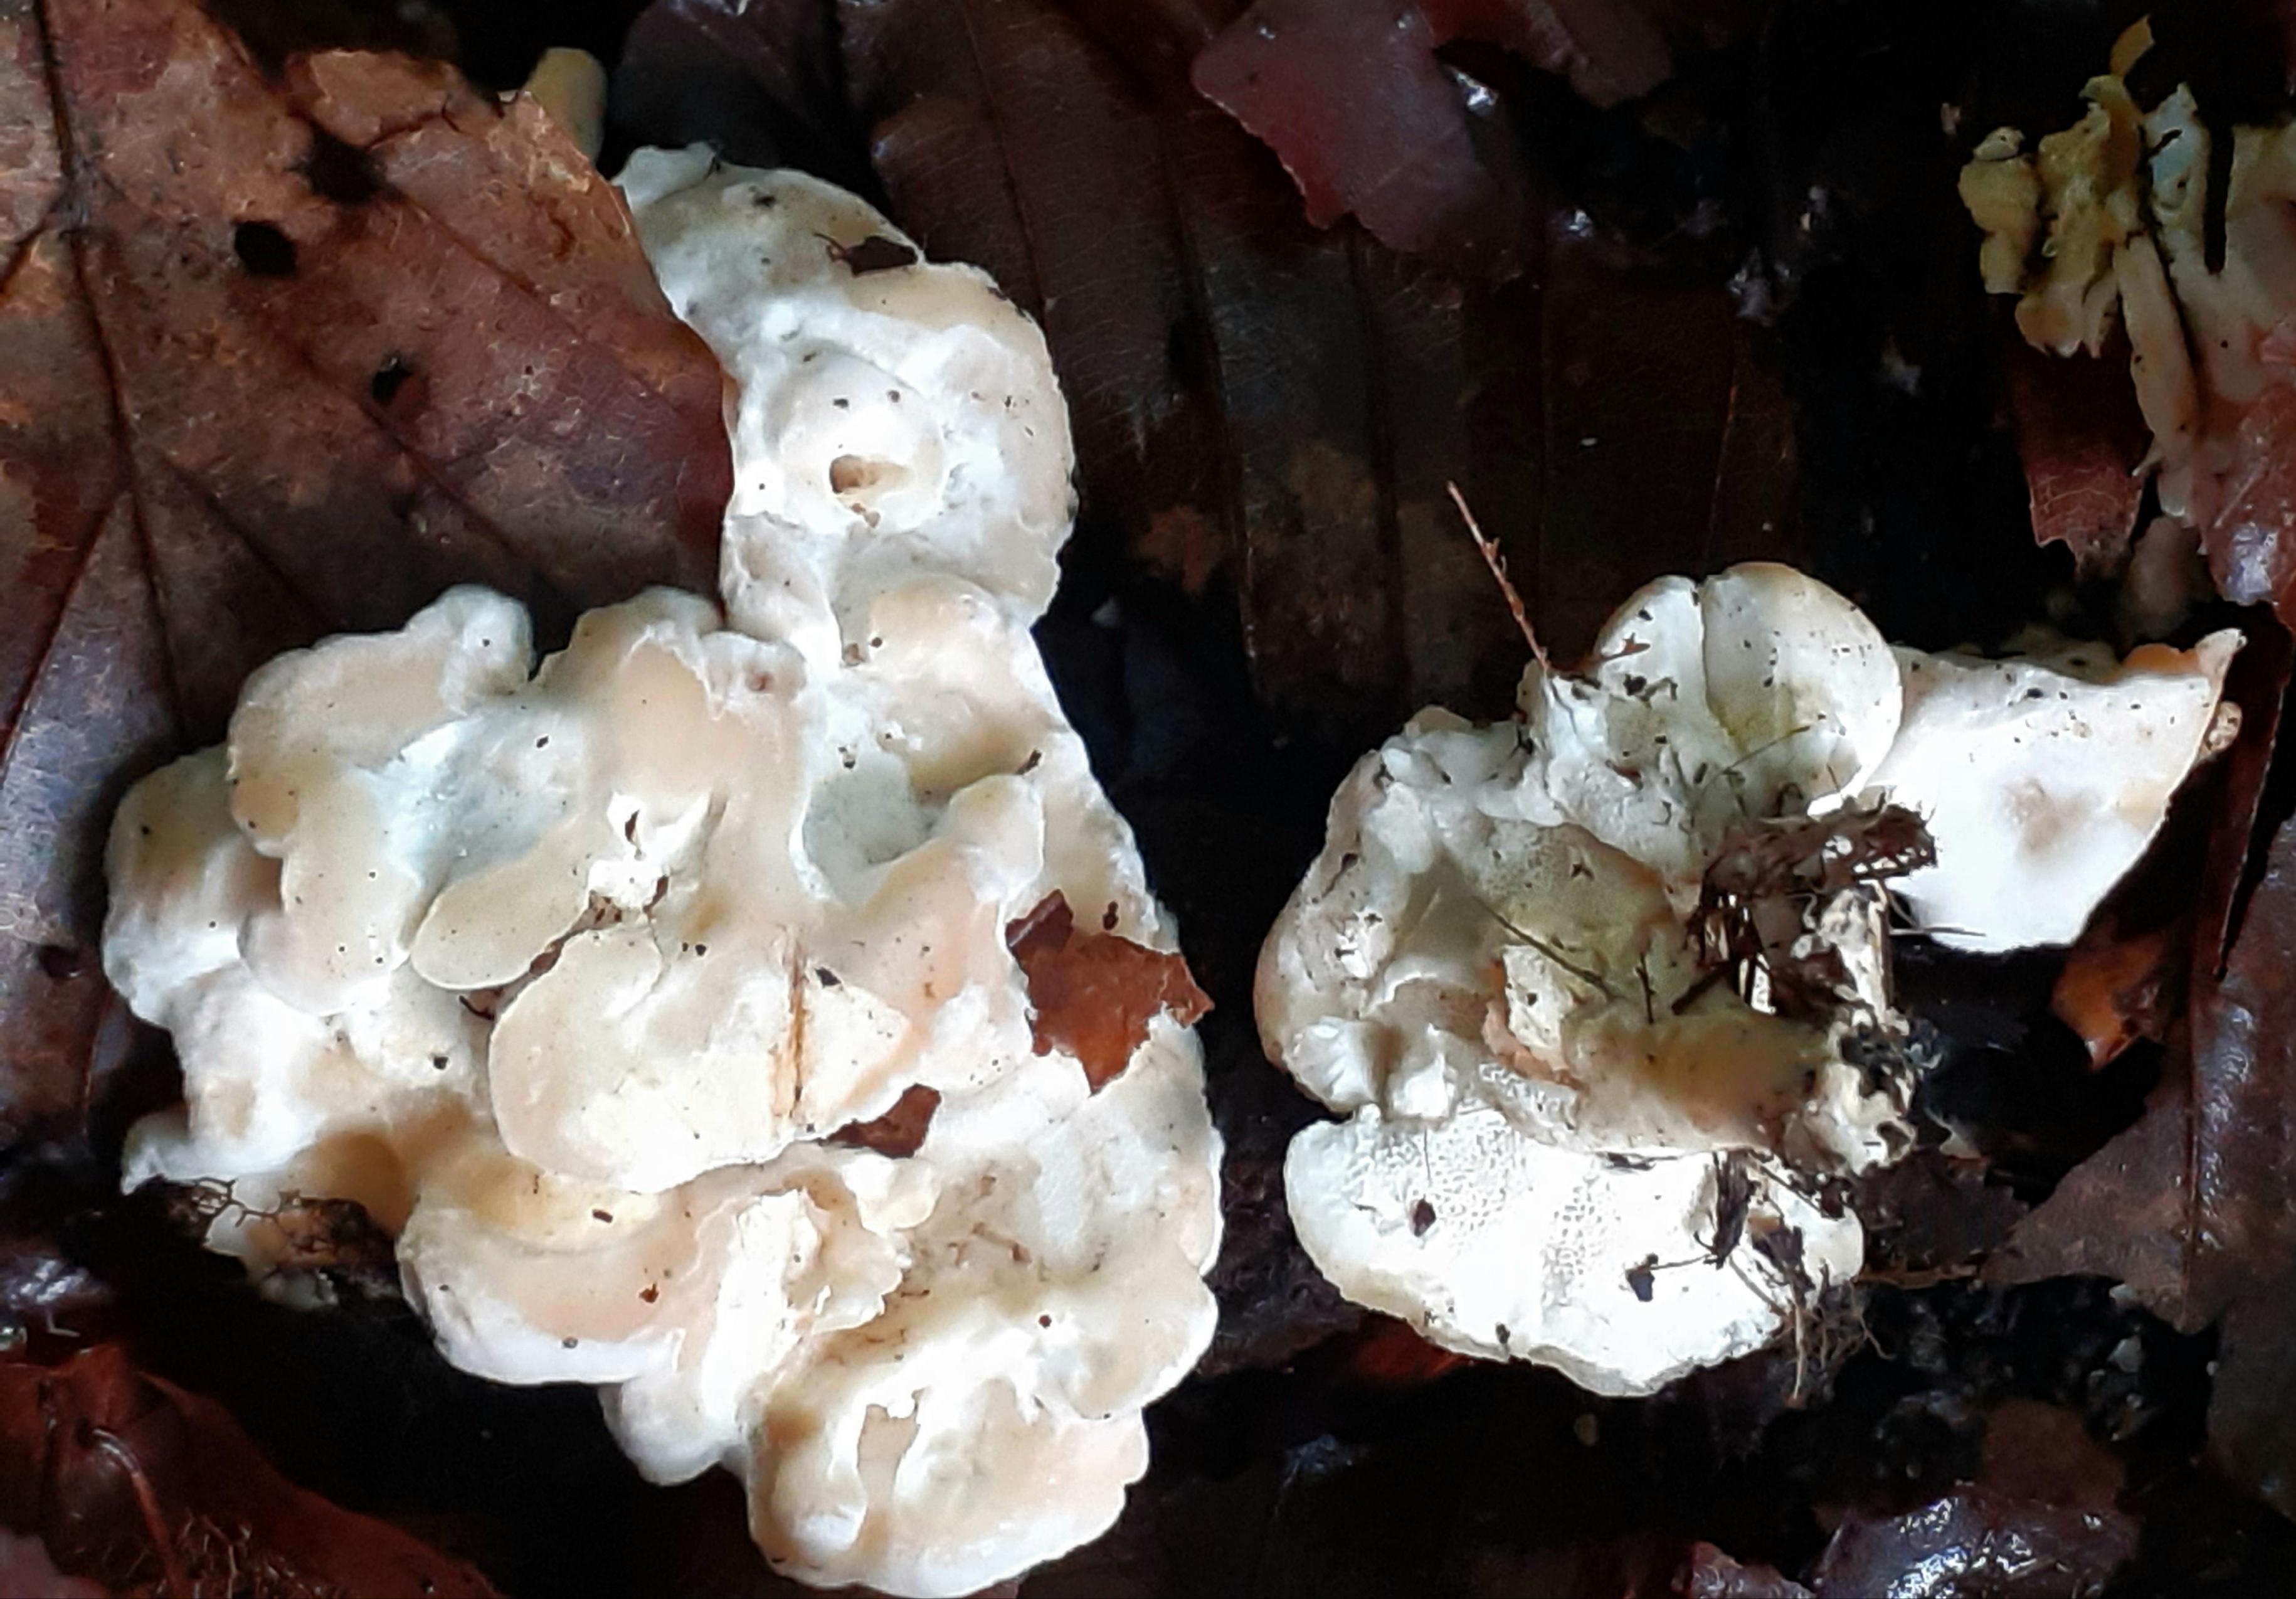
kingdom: Fungi
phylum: Basidiomycota
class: Agaricomycetes
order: Cantharellales
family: Hydnaceae
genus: Sistotrema
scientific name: Sistotrema confluens
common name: stilket kroneskorpe
